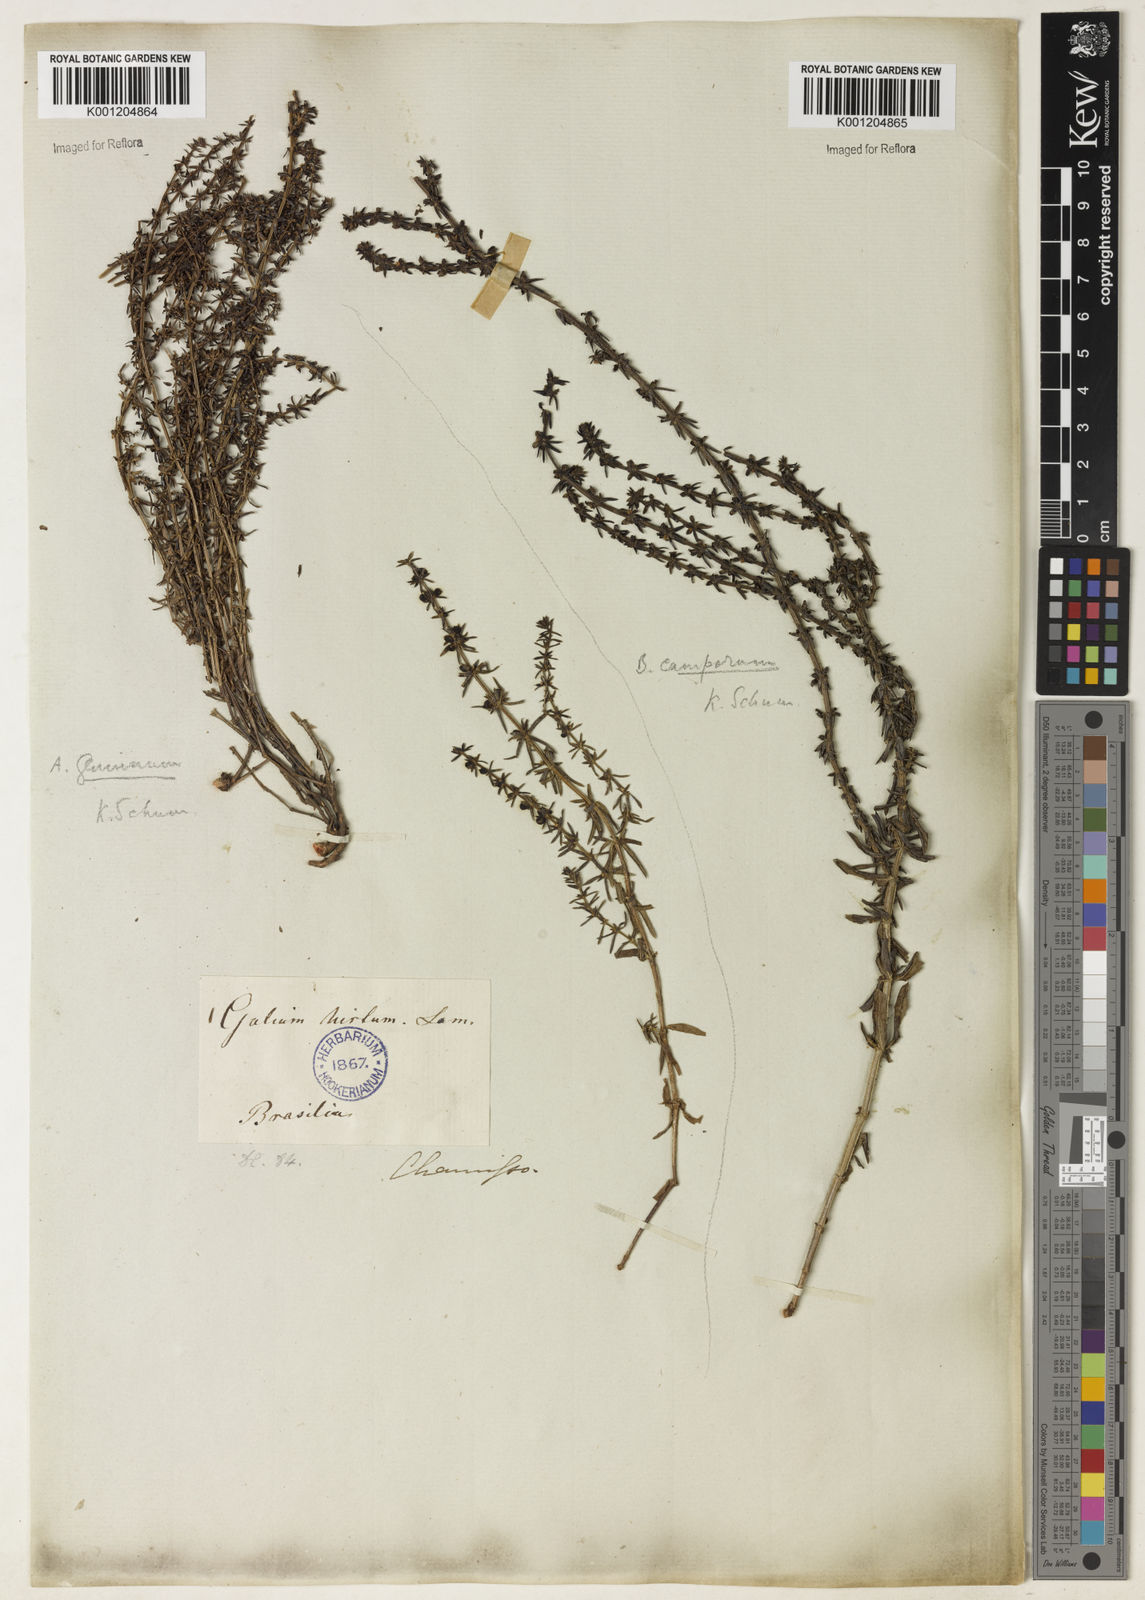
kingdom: Plantae
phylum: Tracheophyta
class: Magnoliopsida
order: Gentianales
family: Rubiaceae
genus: Galium
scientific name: Galium megapotamicum
